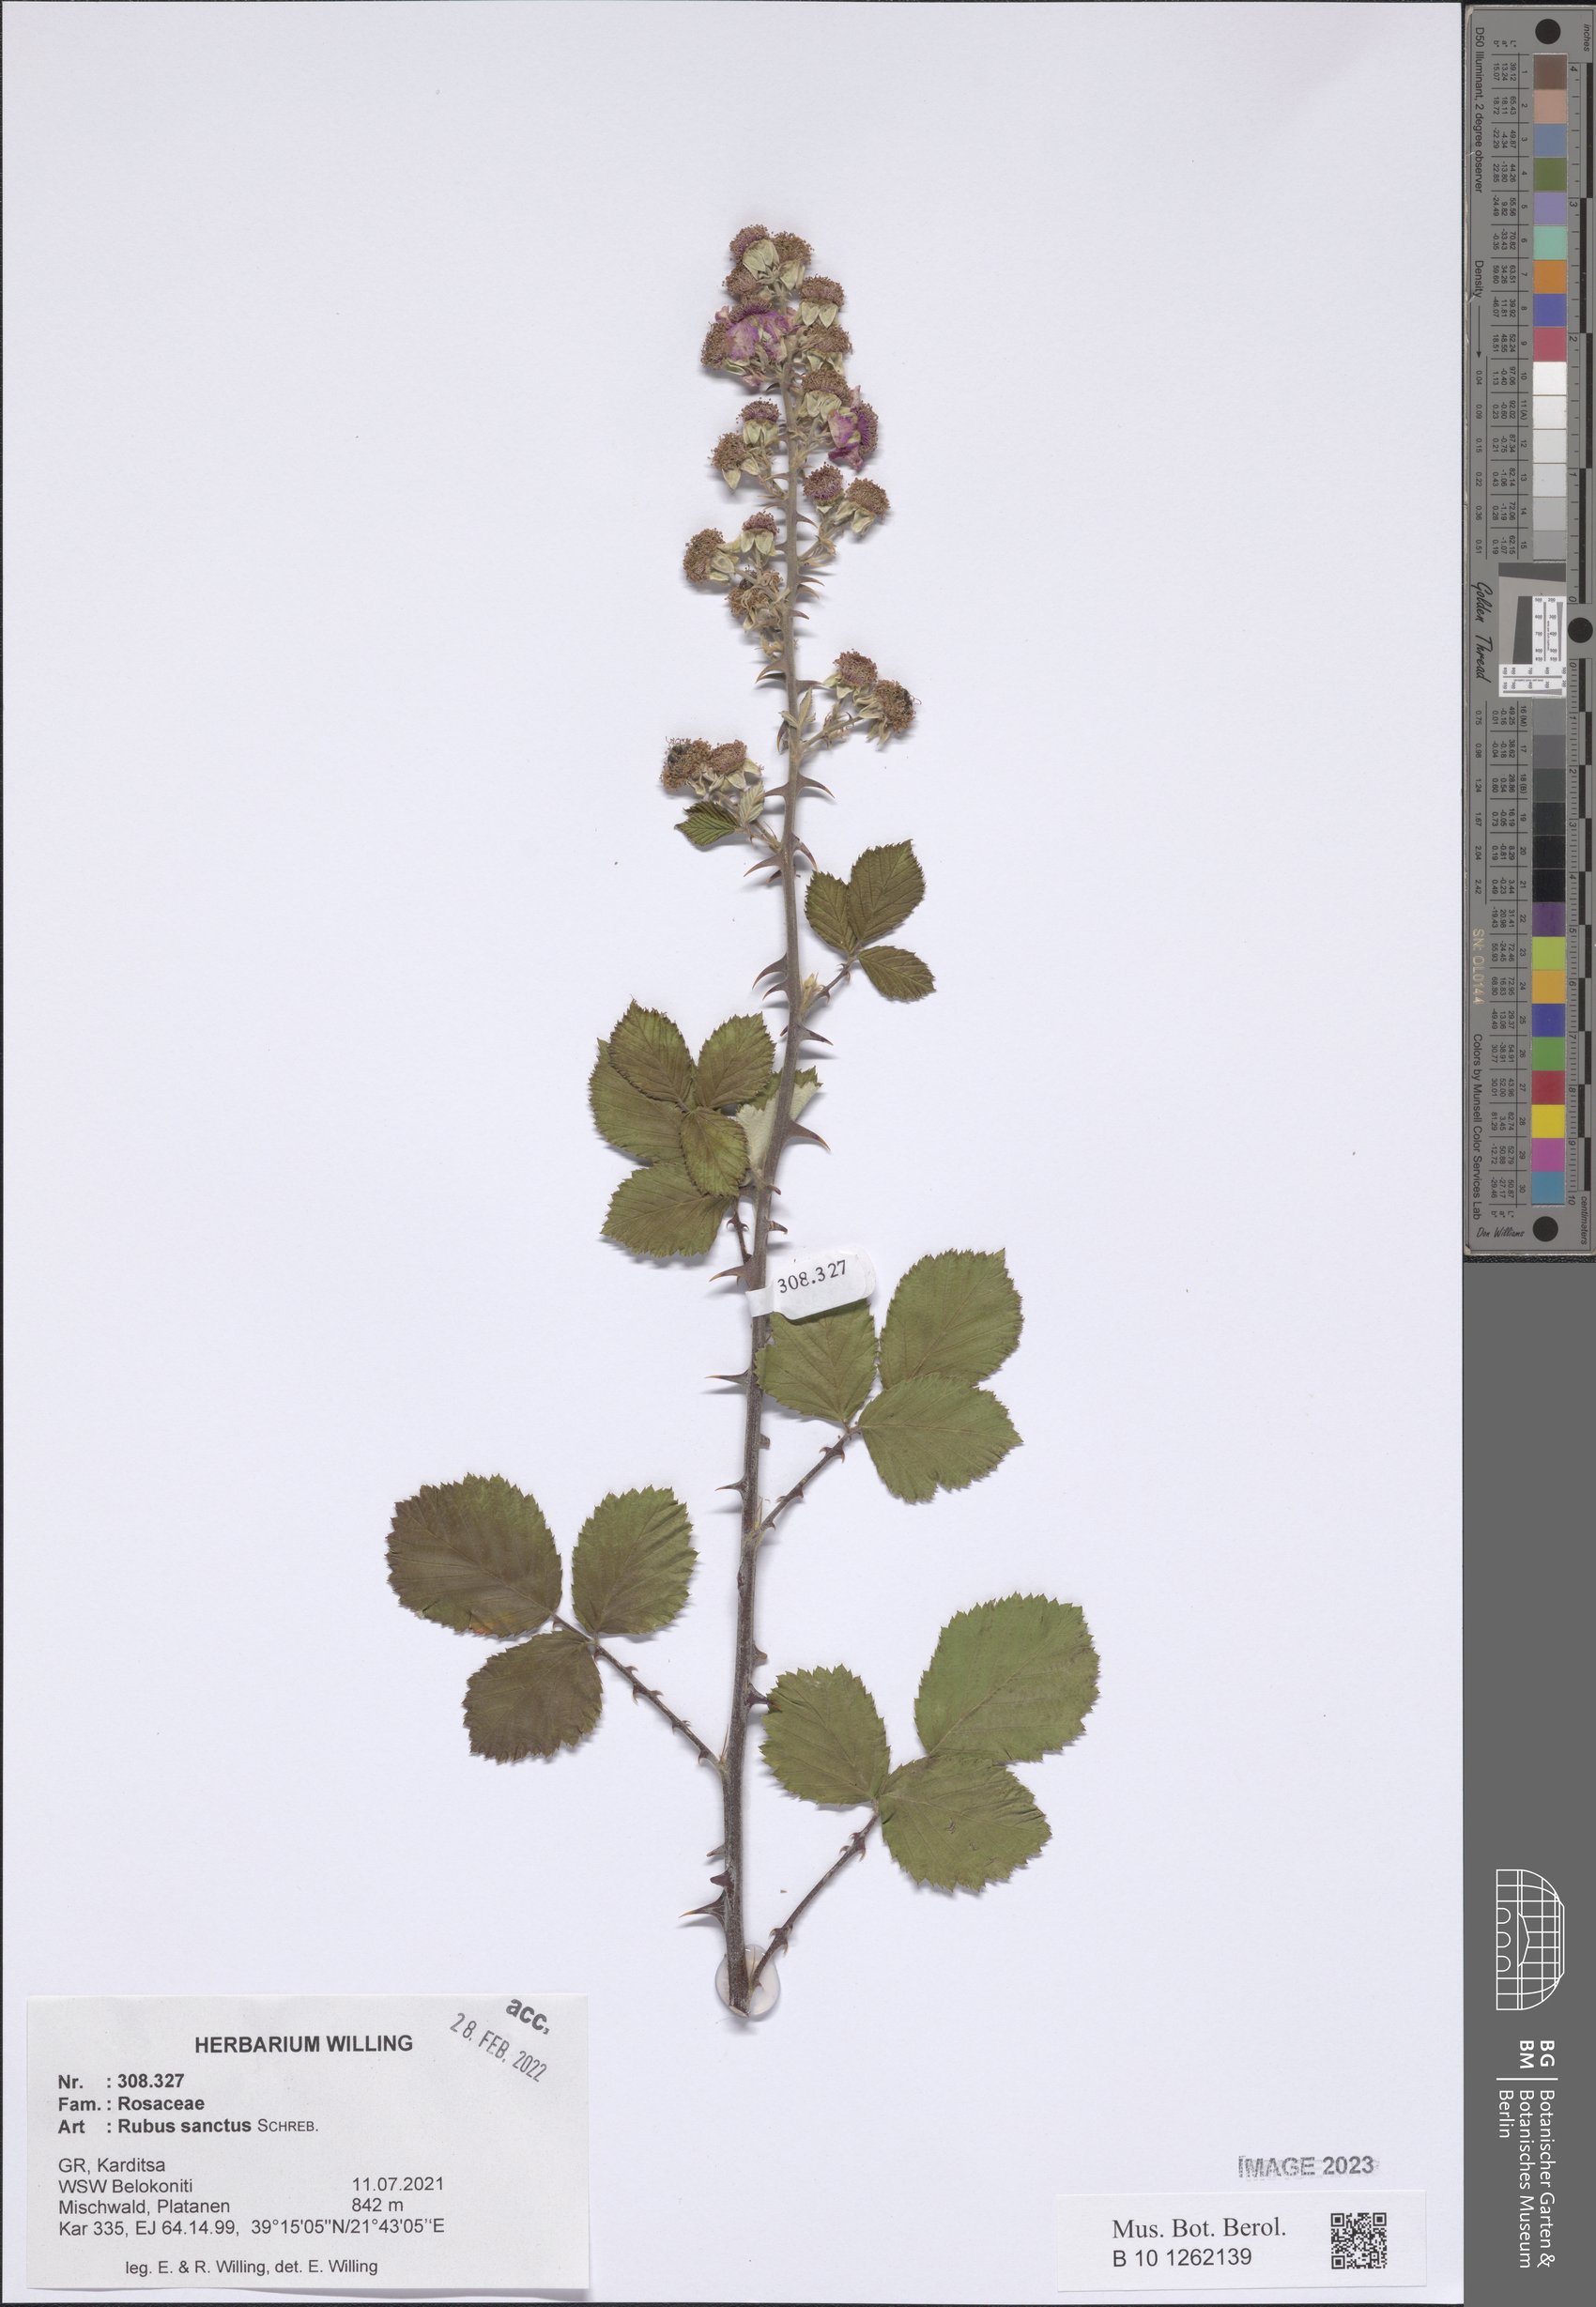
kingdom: Plantae
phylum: Tracheophyta
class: Magnoliopsida
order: Rosales
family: Rosaceae
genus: Rubus
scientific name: Rubus sanctus
